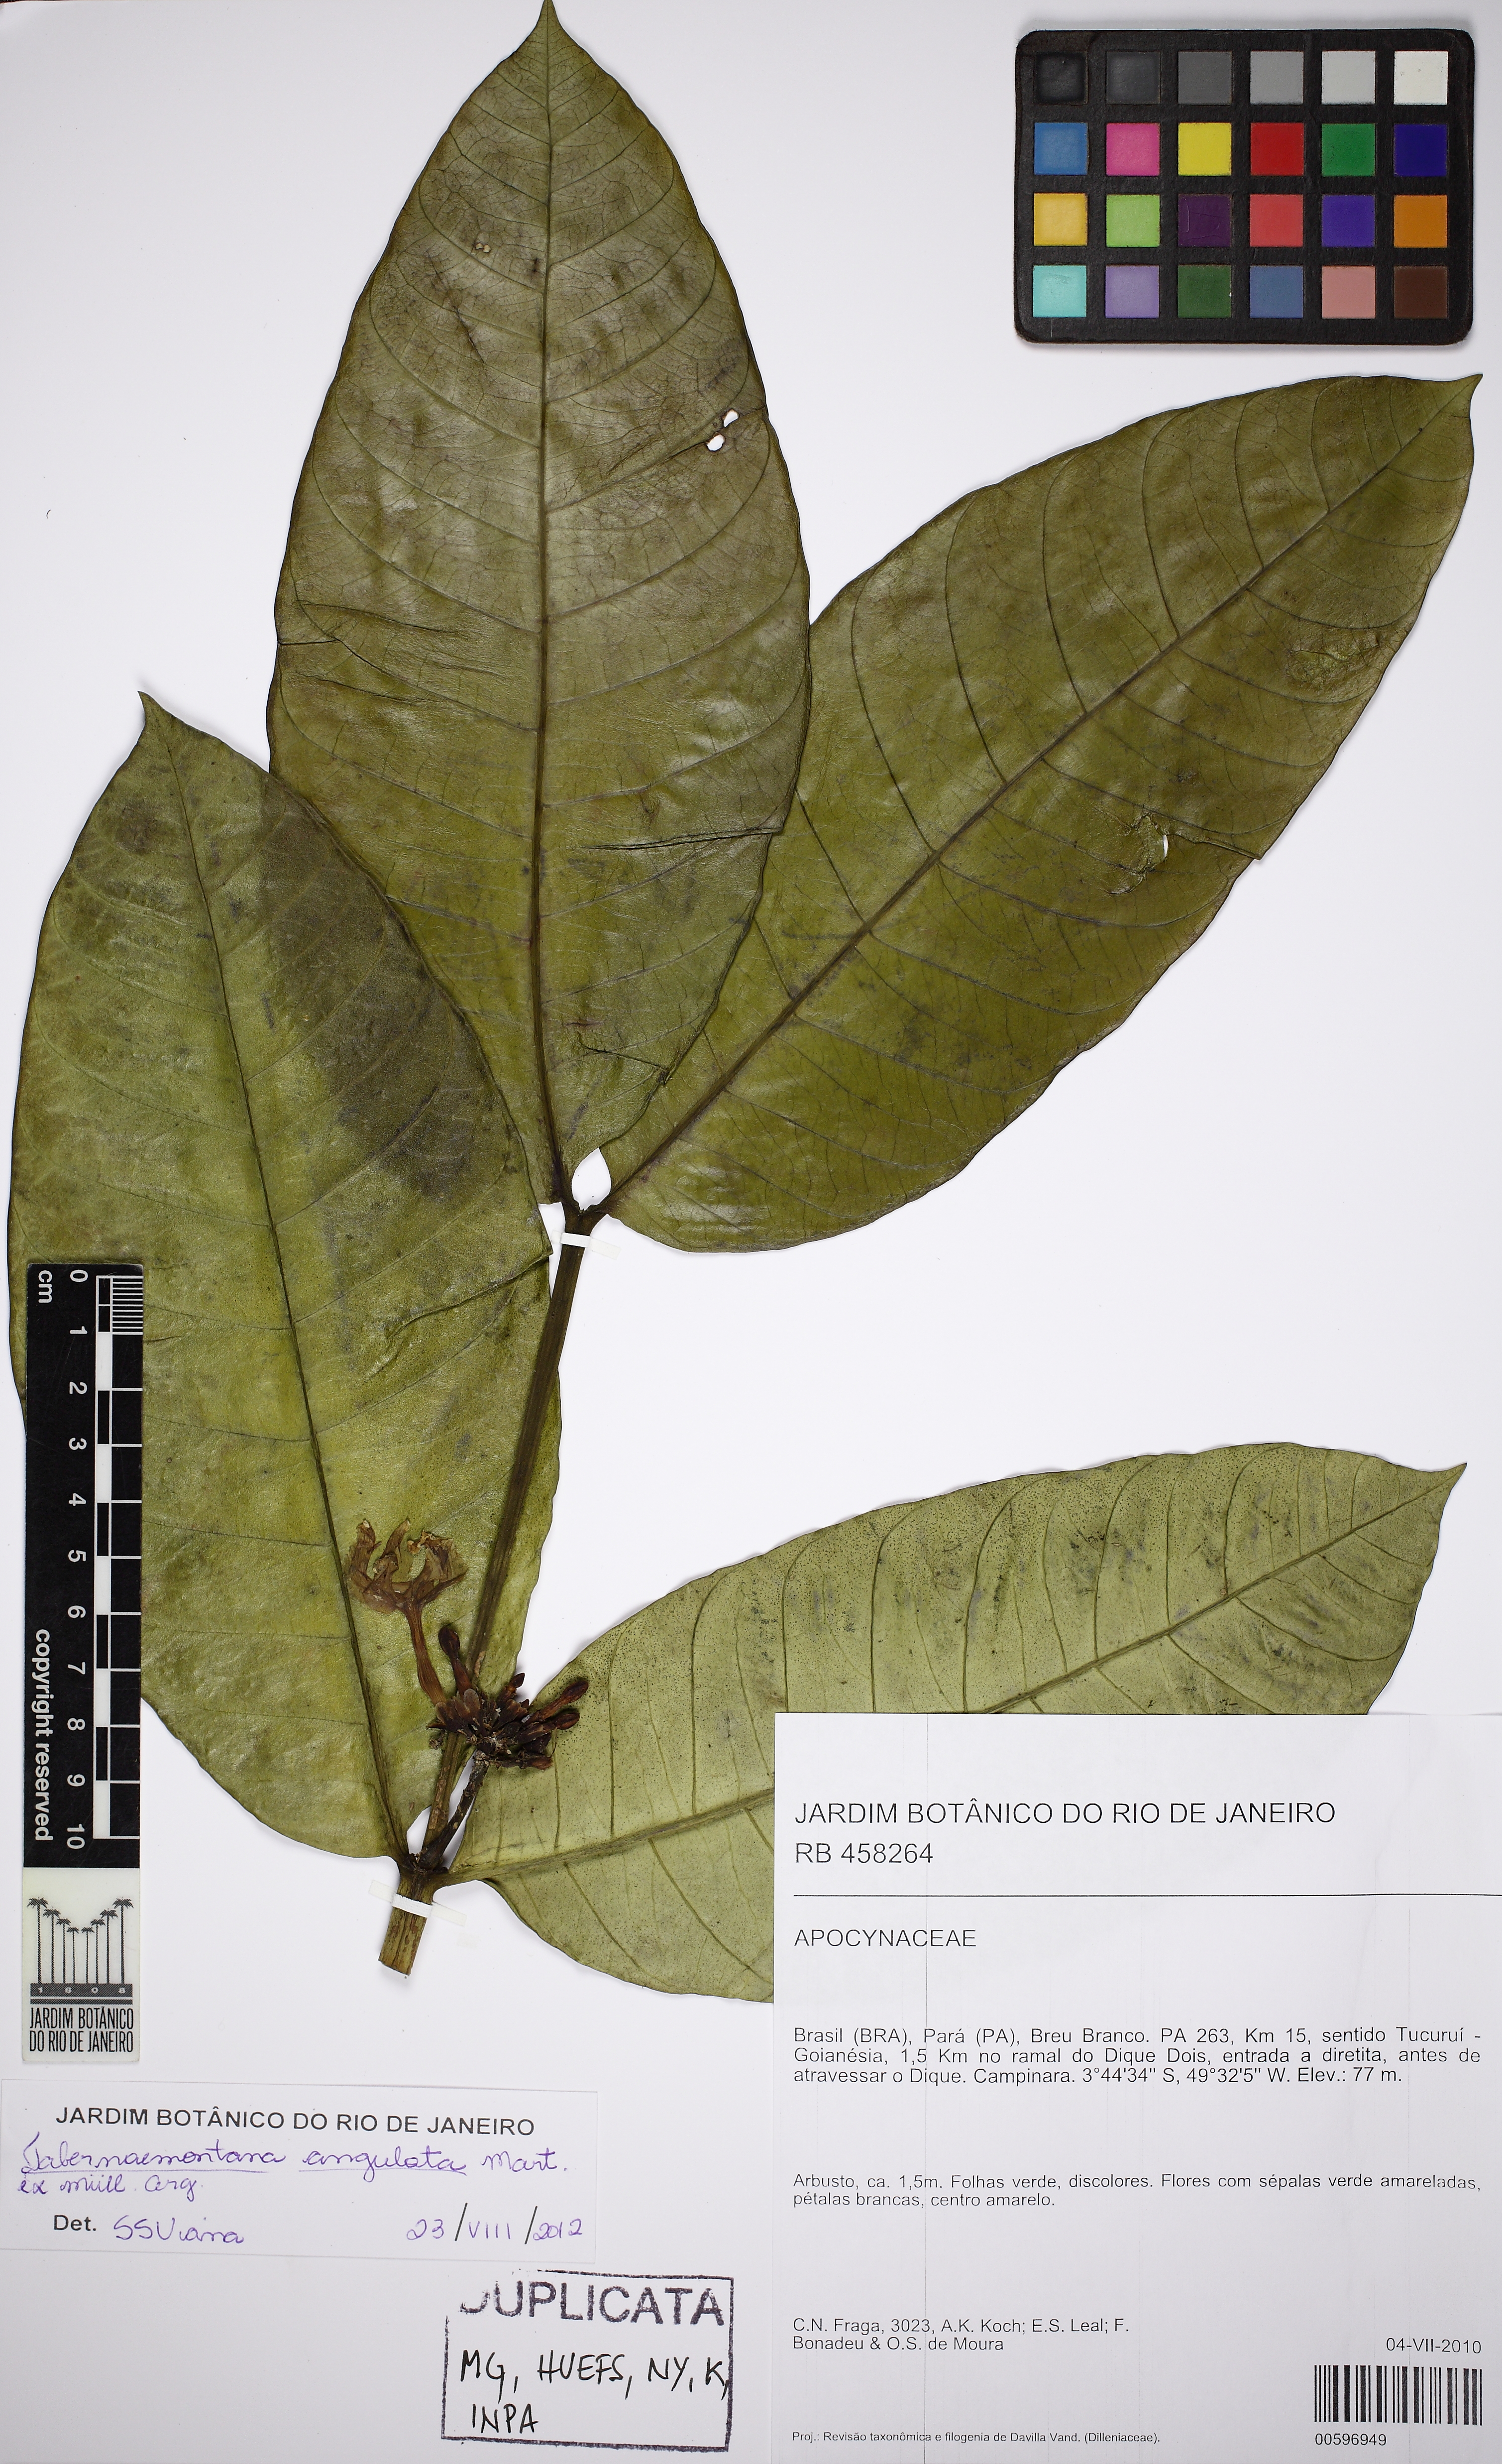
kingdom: Plantae
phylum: Tracheophyta
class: Magnoliopsida
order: Gentianales
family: Apocynaceae
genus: Tabernaemontana
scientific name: Tabernaemontana angulata
